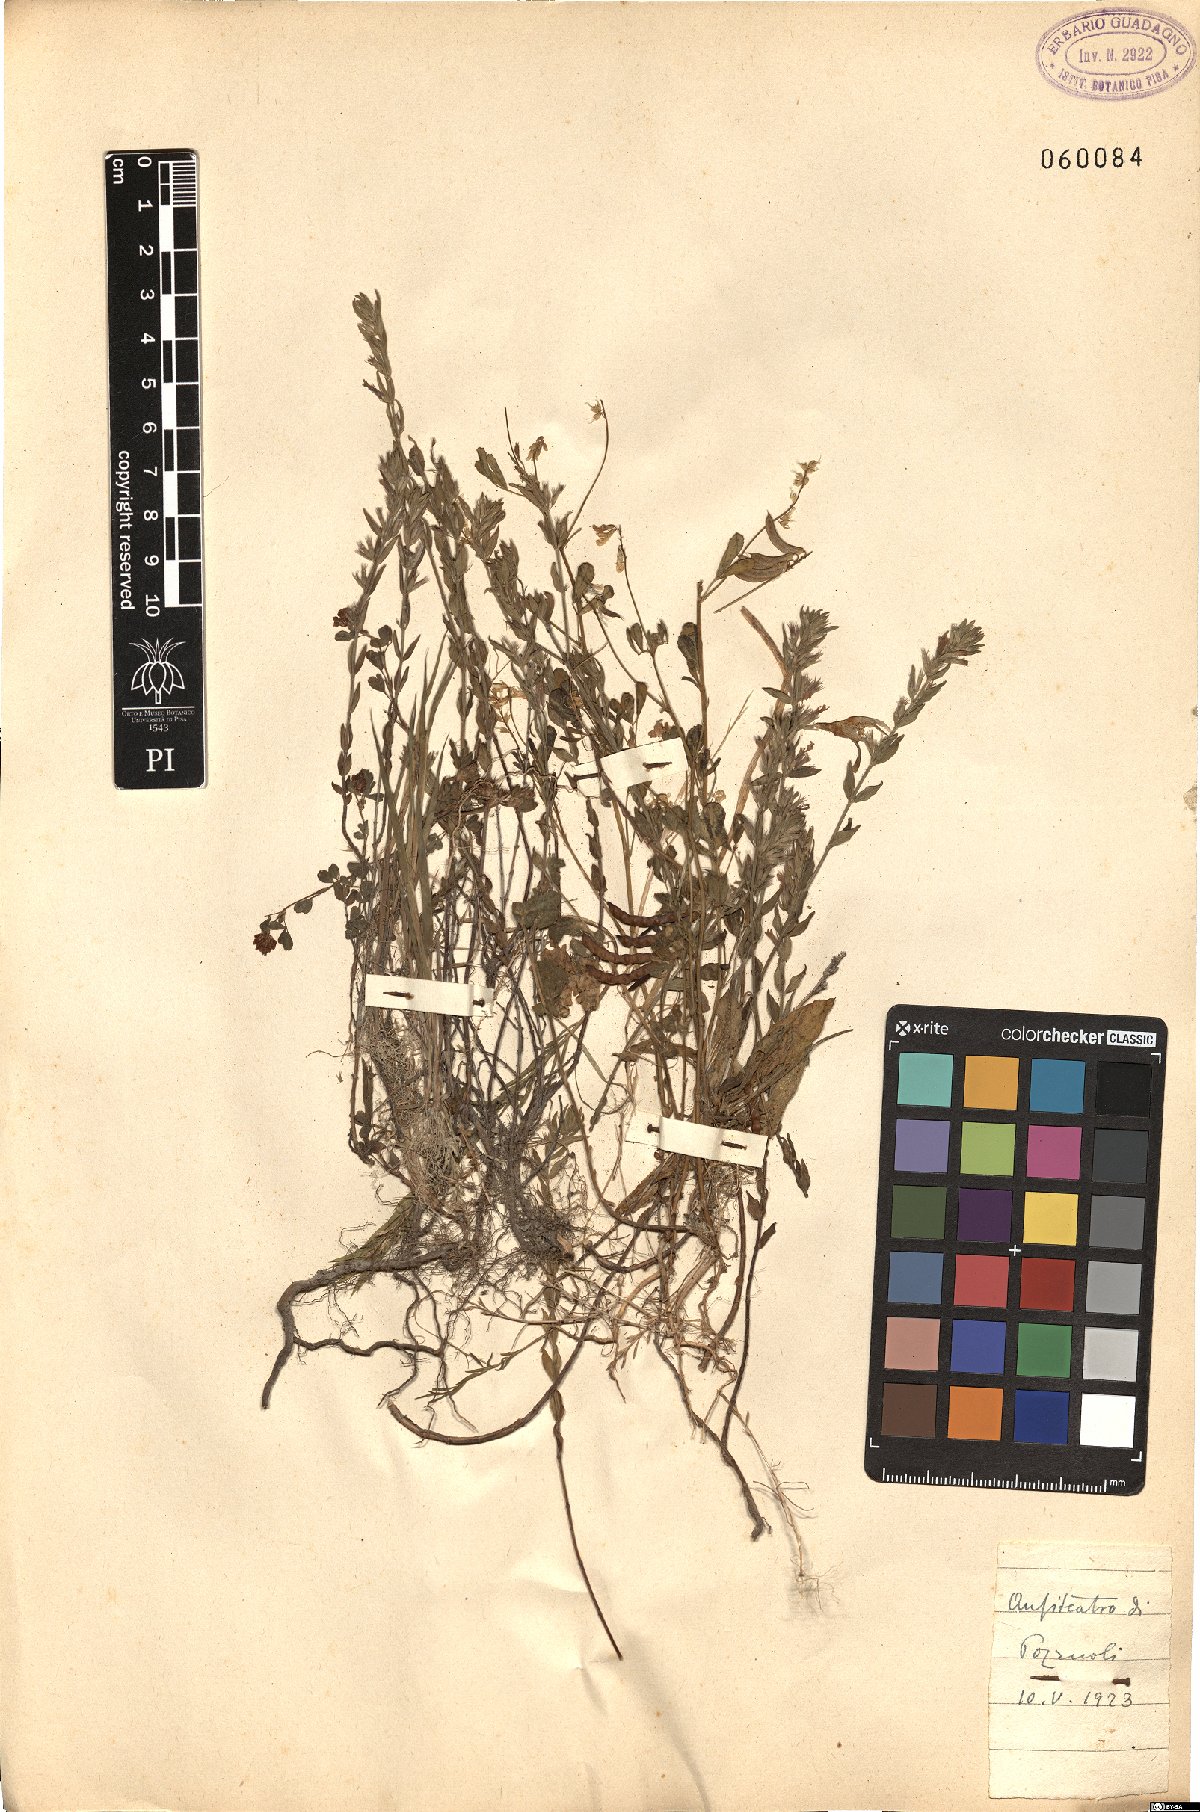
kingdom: Plantae
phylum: Tracheophyta
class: Magnoliopsida
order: Lamiales
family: Lamiaceae
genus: Micromeria
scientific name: Micromeria
